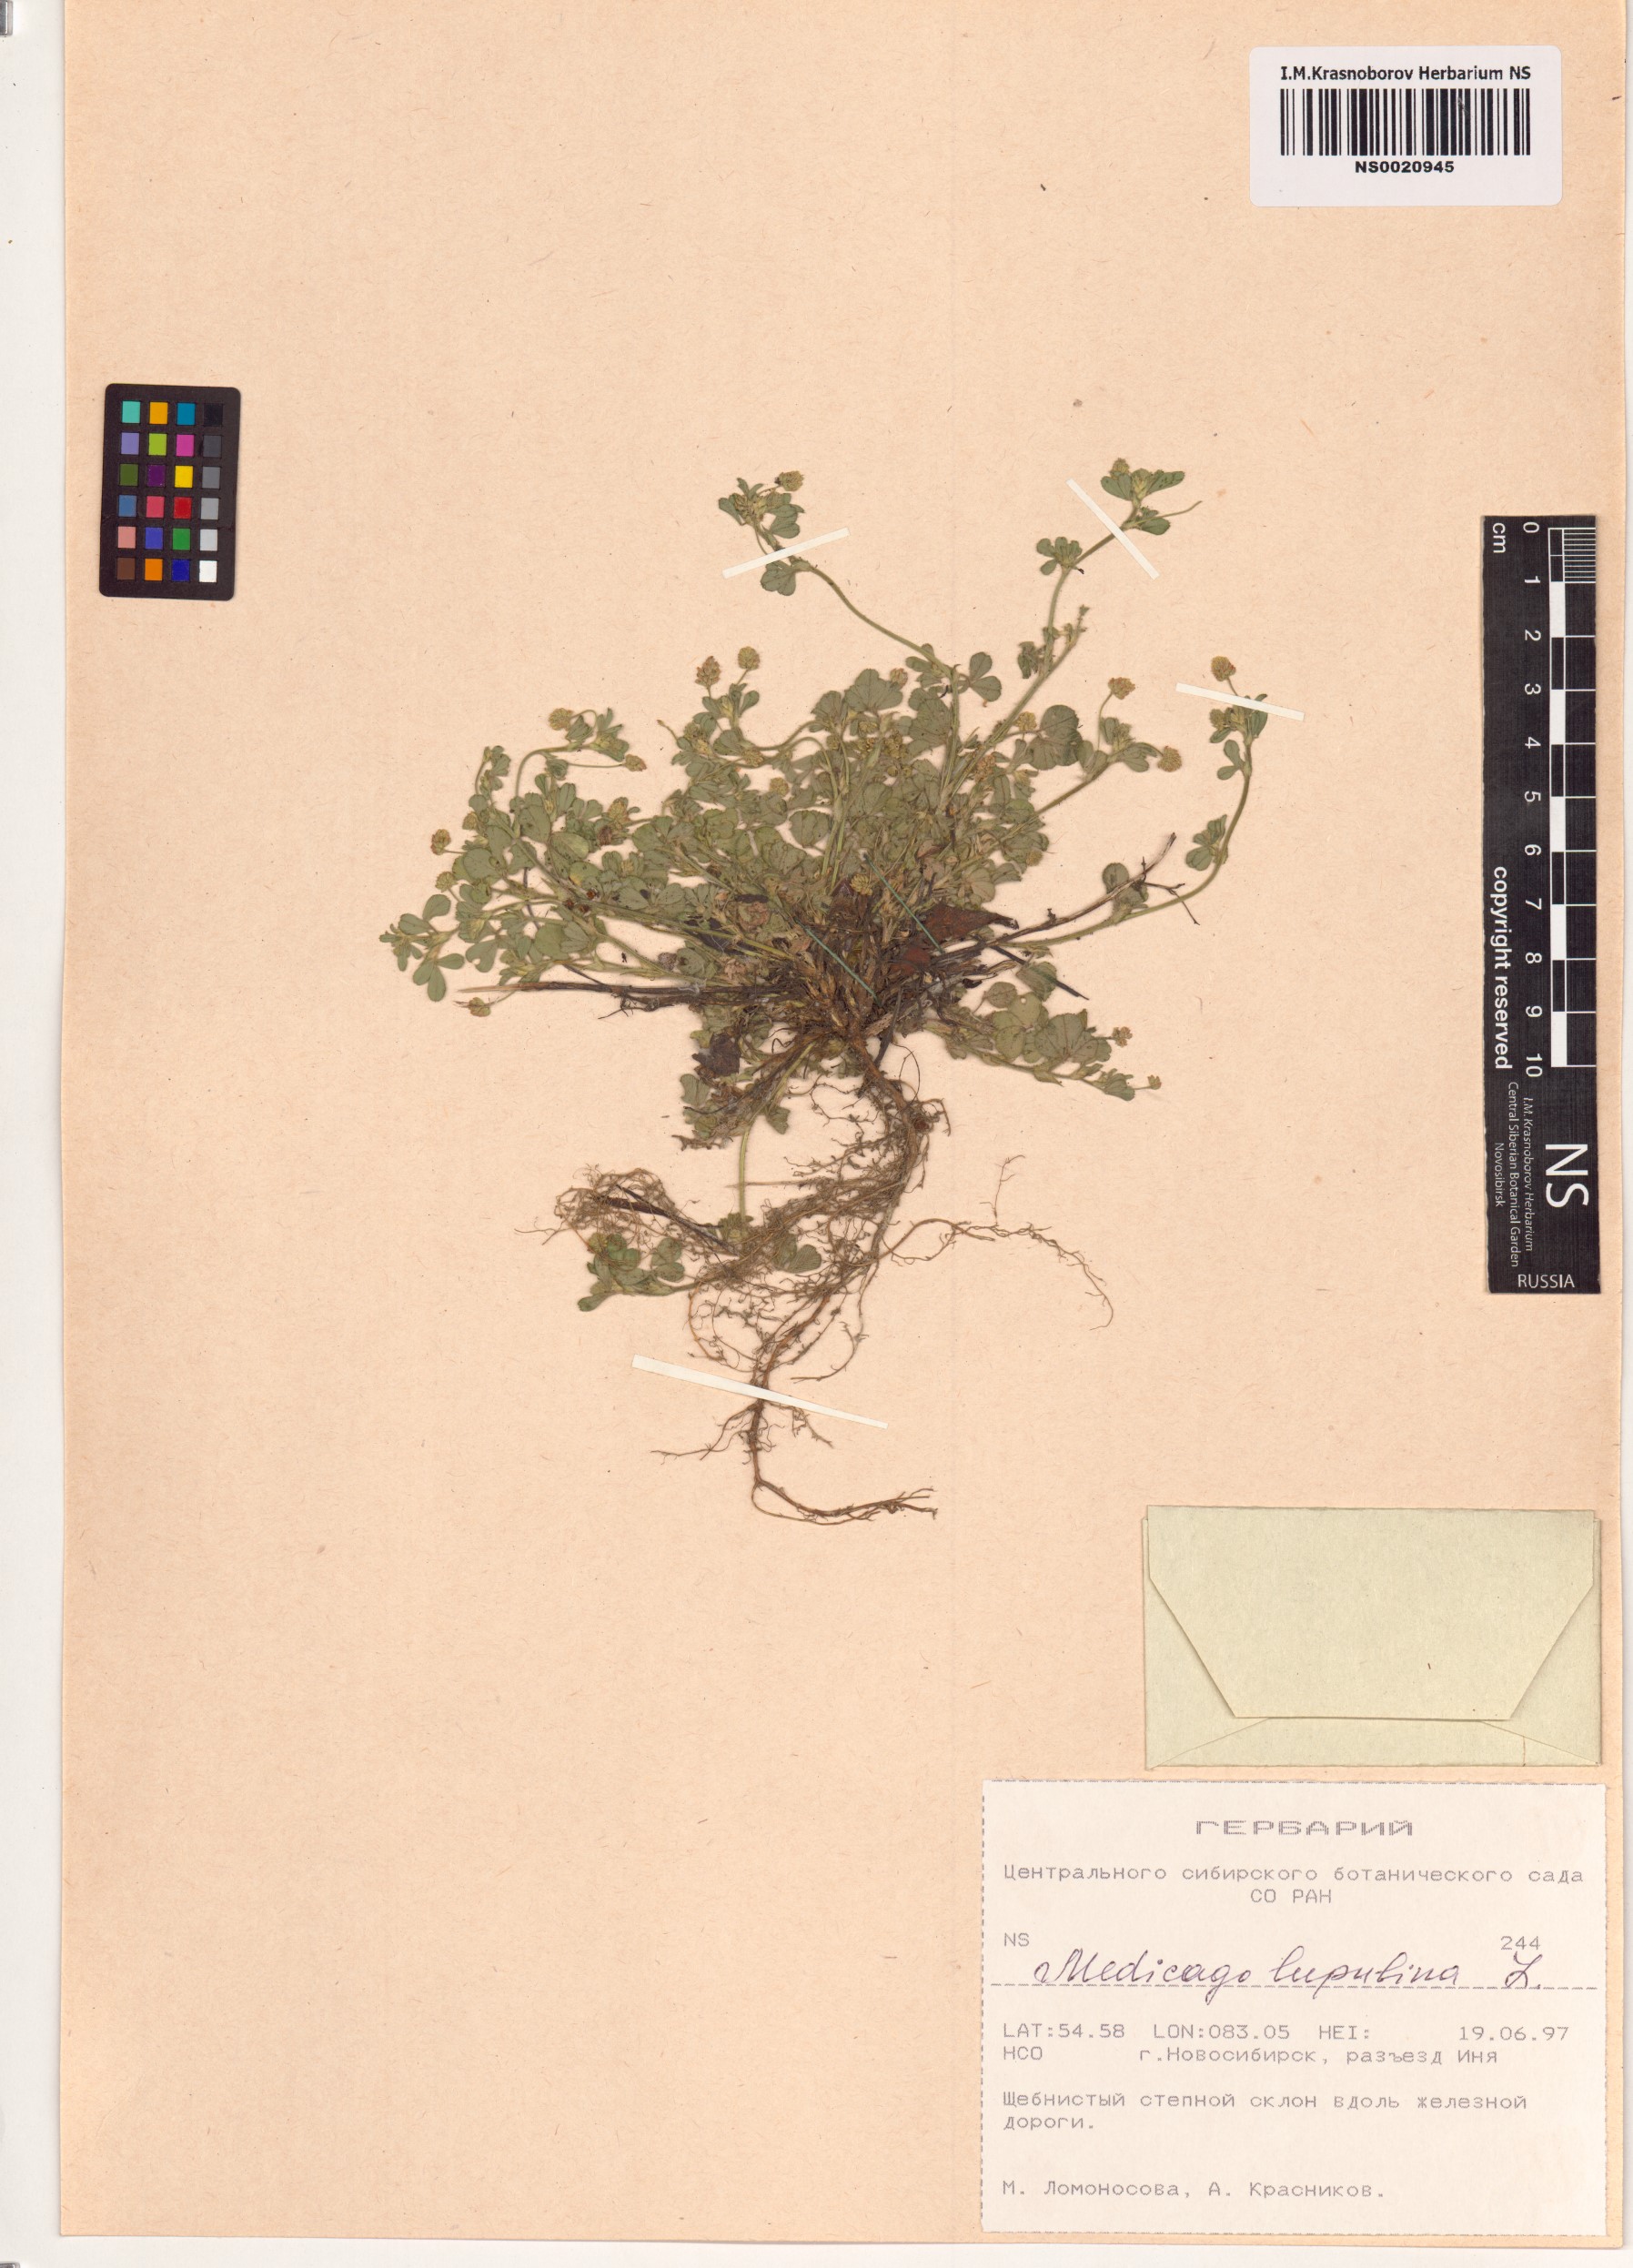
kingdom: Plantae
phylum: Tracheophyta
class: Magnoliopsida
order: Fabales
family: Fabaceae
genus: Medicago
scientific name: Medicago lupulina
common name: Black medick
